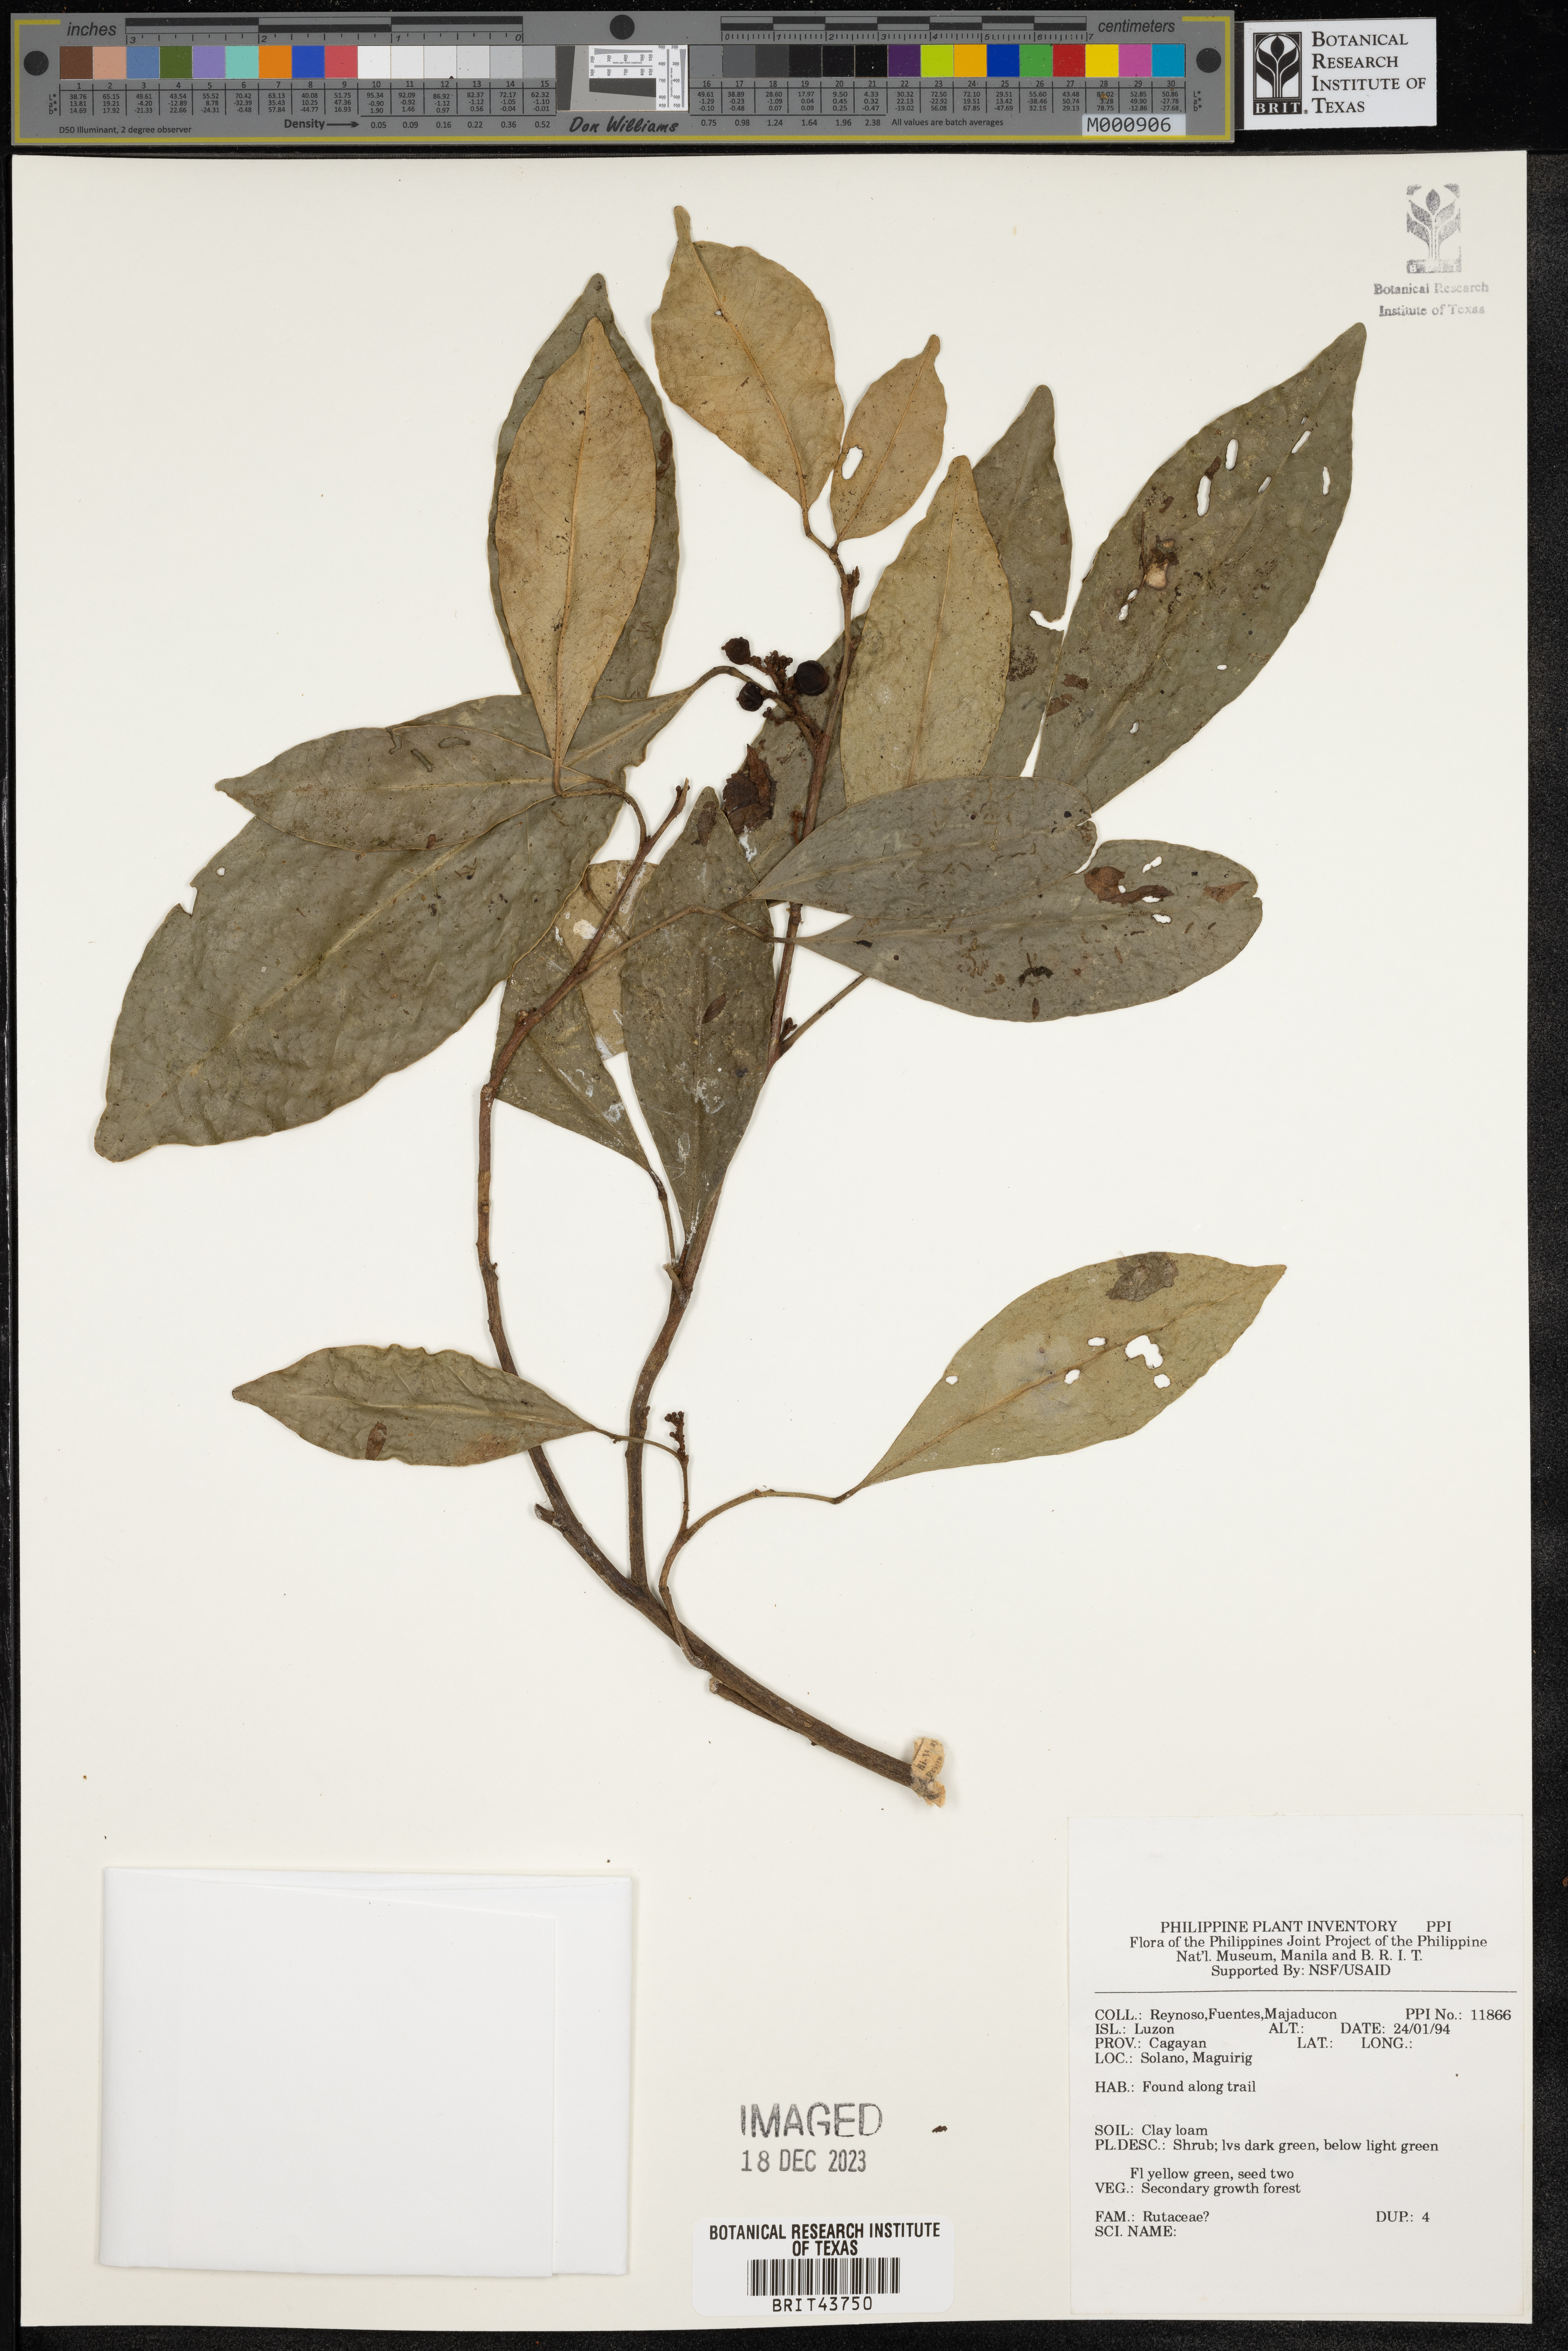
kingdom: Plantae
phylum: Tracheophyta
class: Magnoliopsida
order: Sapindales
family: Rutaceae
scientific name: Rutaceae
